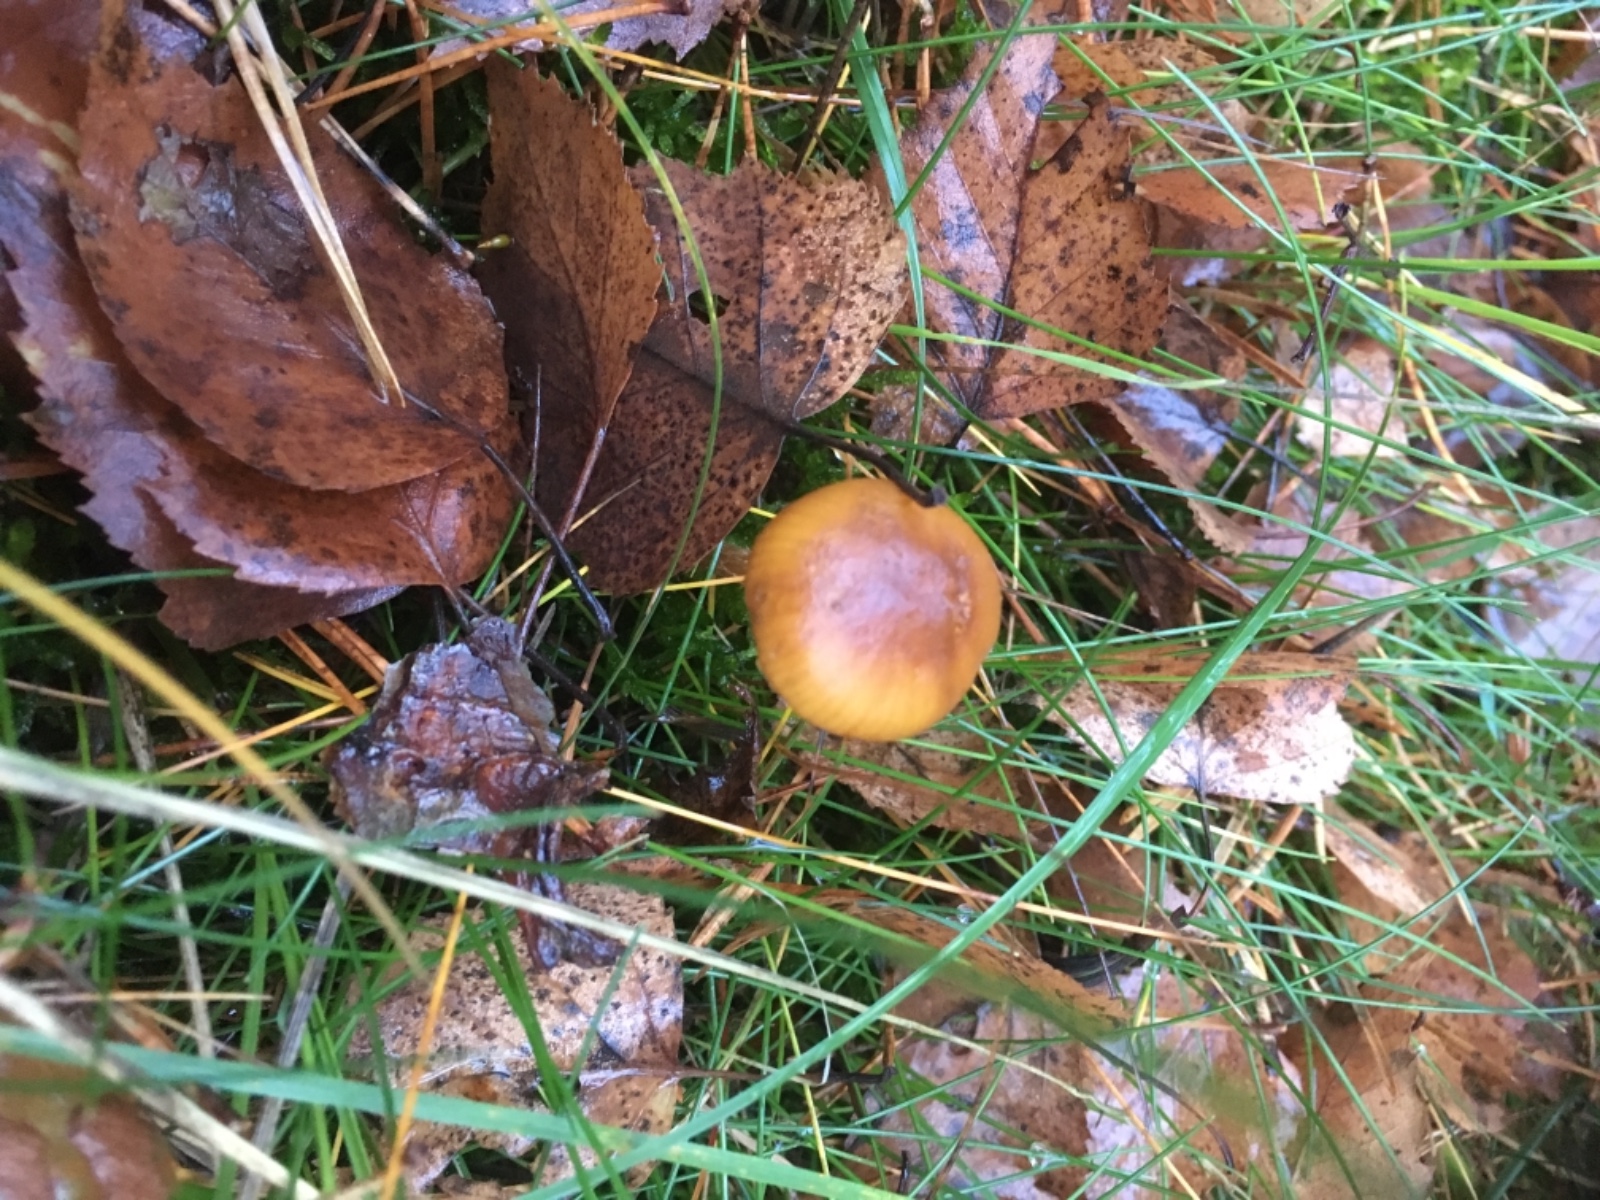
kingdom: Fungi
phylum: Basidiomycota
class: Agaricomycetes
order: Agaricales
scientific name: Agaricales
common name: champignonordenen
